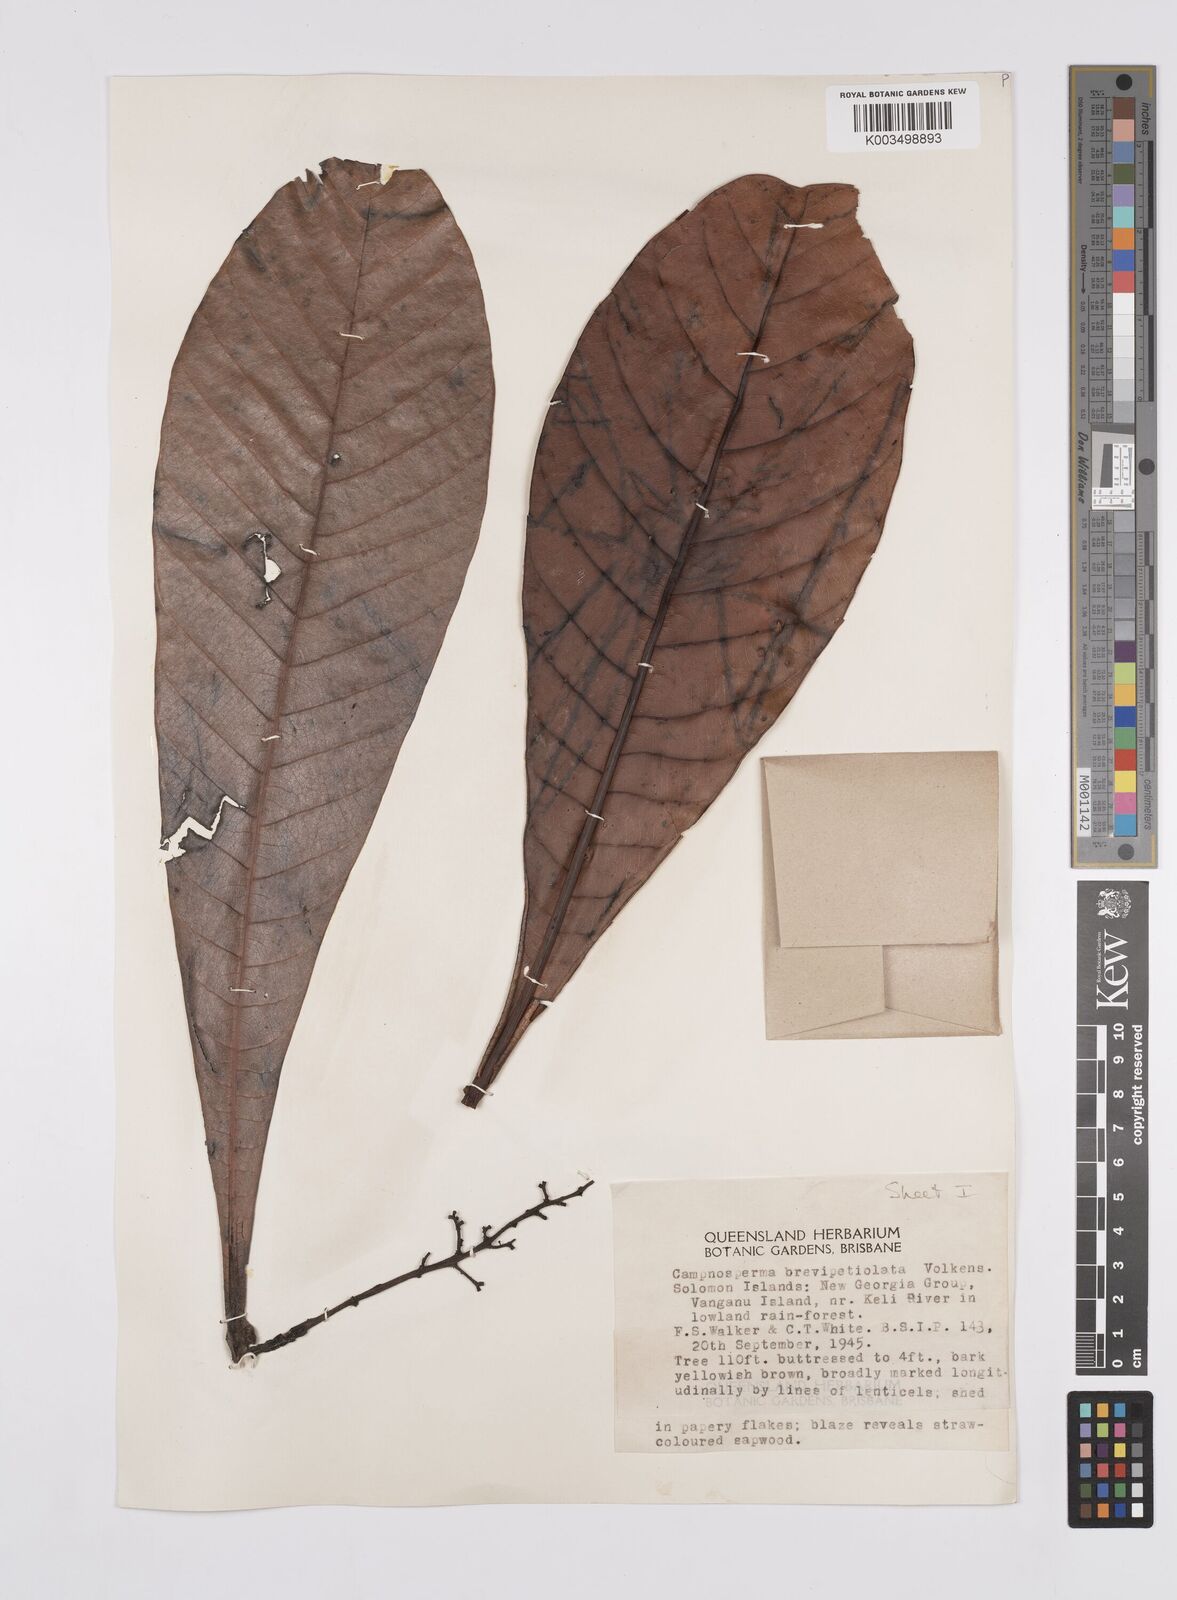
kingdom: Plantae
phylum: Tracheophyta
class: Magnoliopsida
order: Sapindales
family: Anacardiaceae
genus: Campnosperma
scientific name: Campnosperma brevipetiolatum
